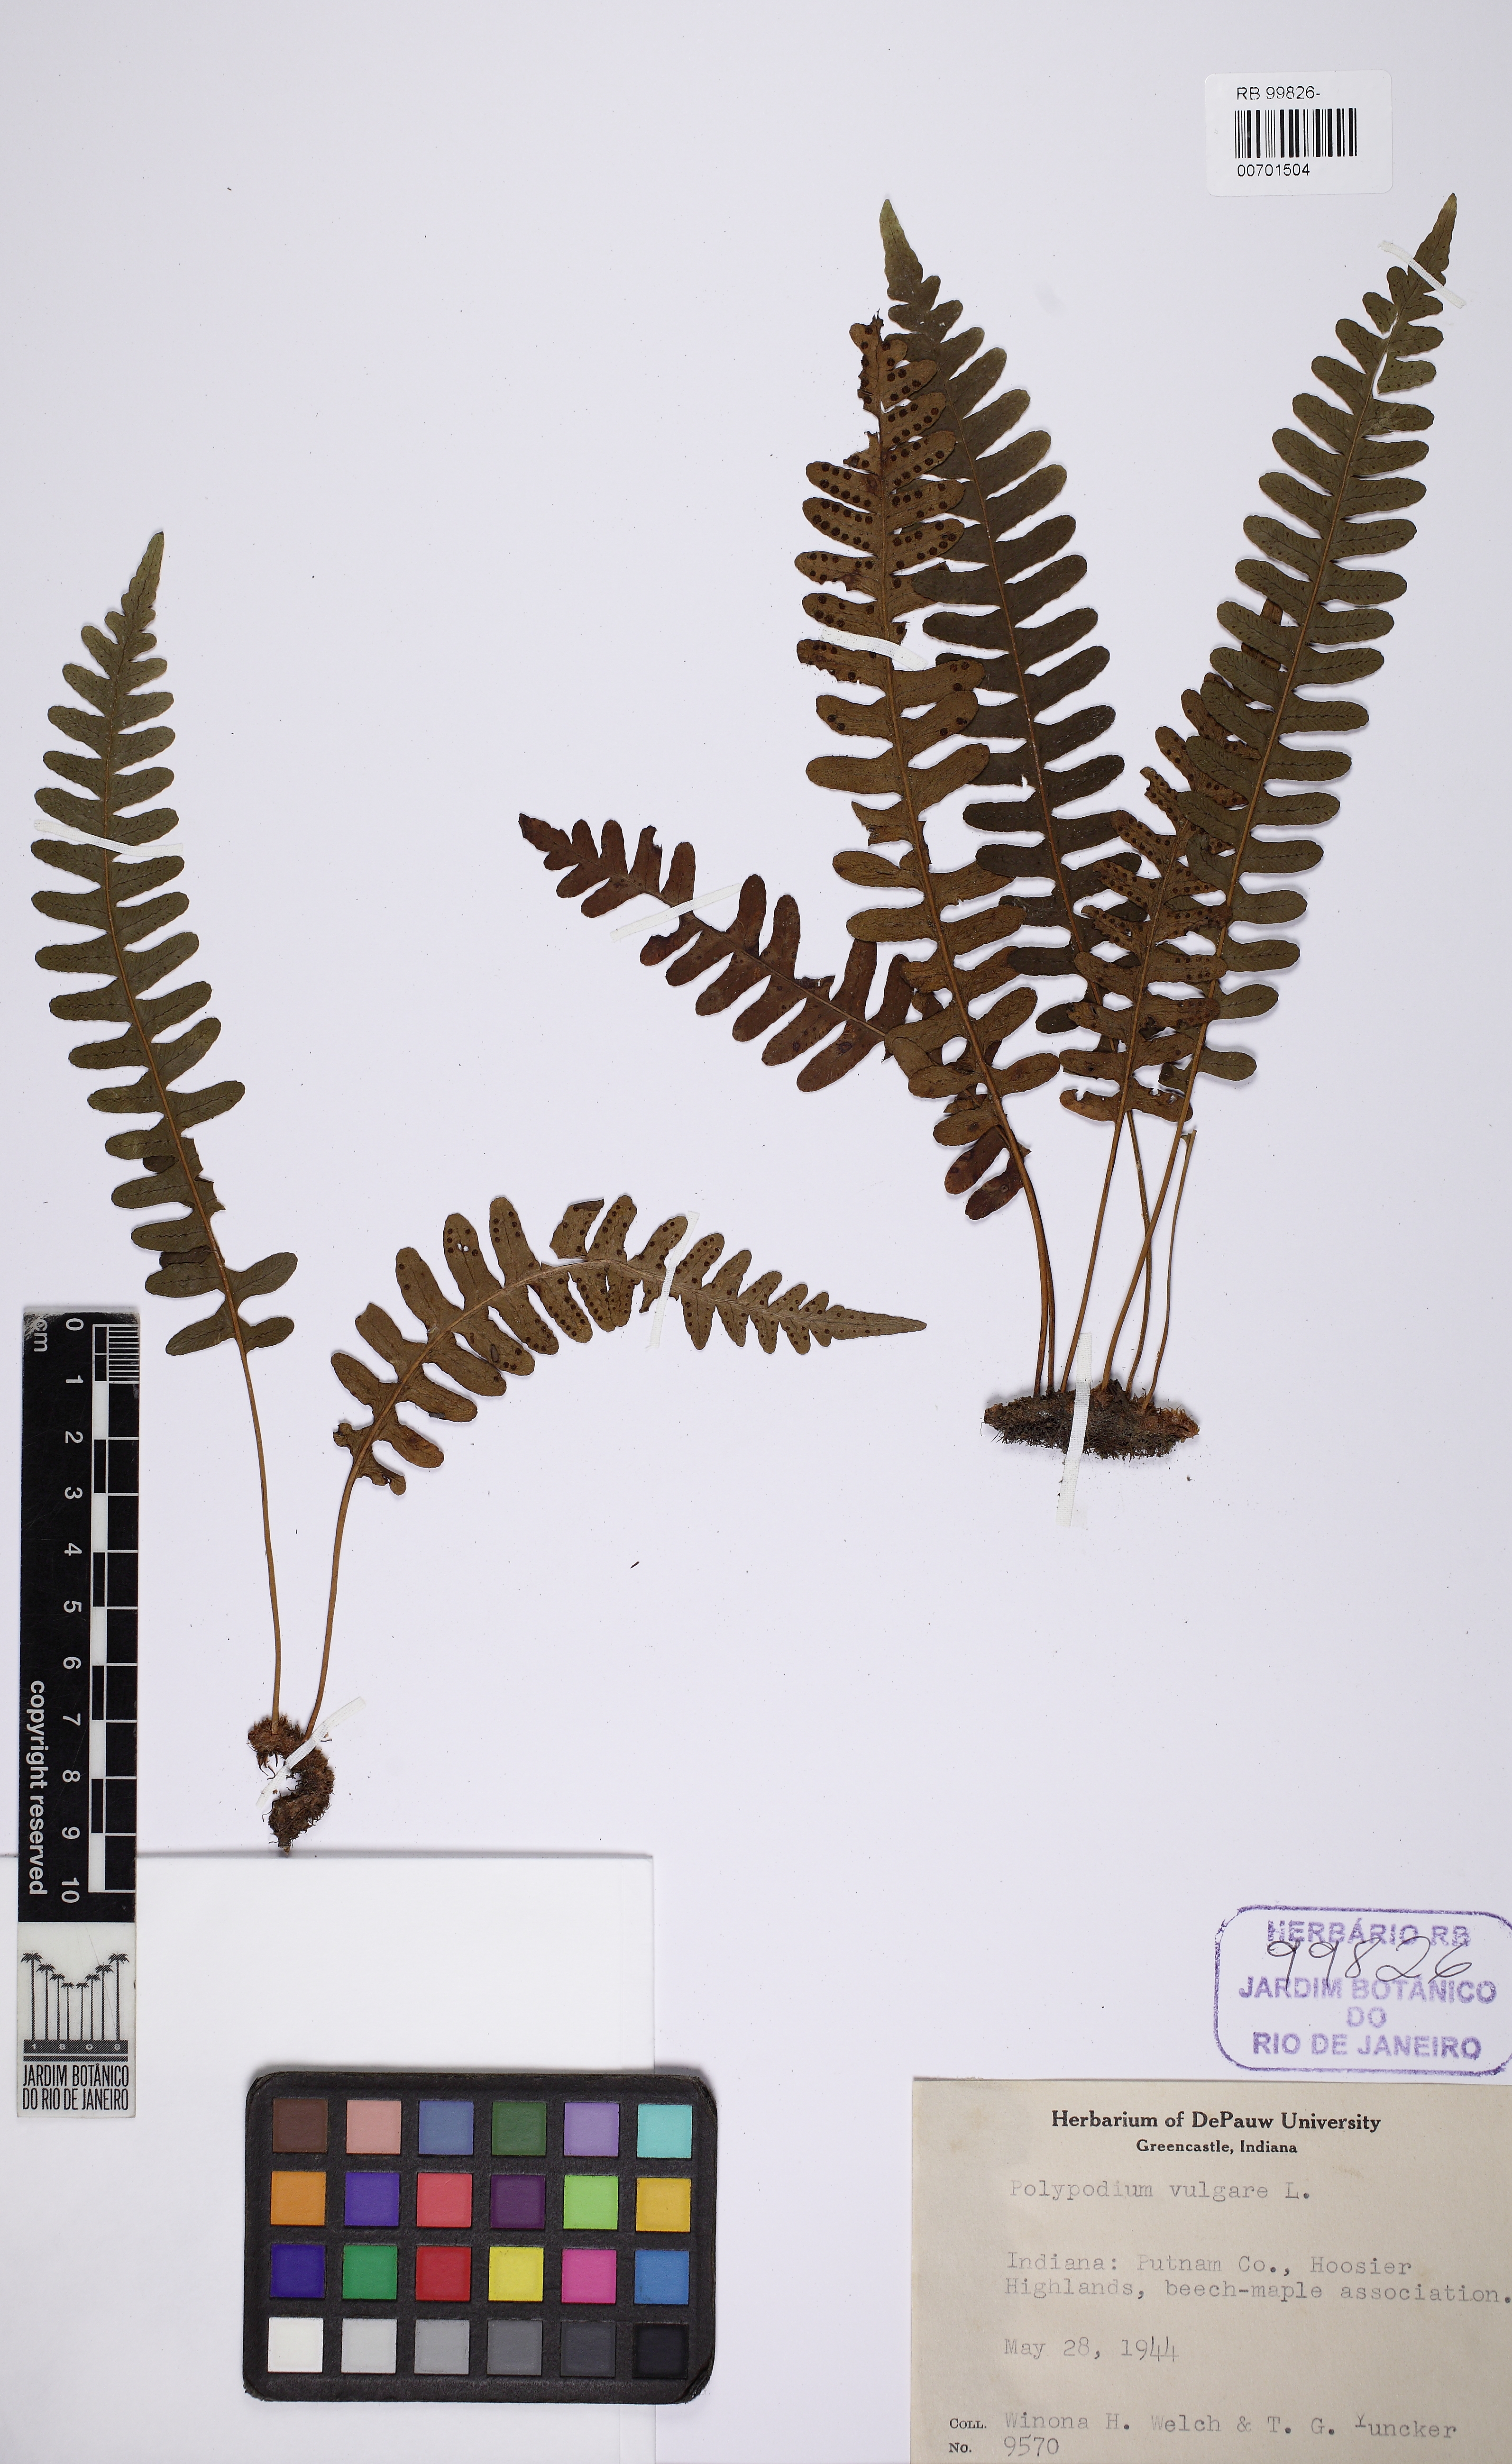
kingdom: Plantae
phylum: Tracheophyta
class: Polypodiopsida
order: Polypodiales
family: Polypodiaceae
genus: Polypodium
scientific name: Polypodium vulgare
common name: Common polypody
